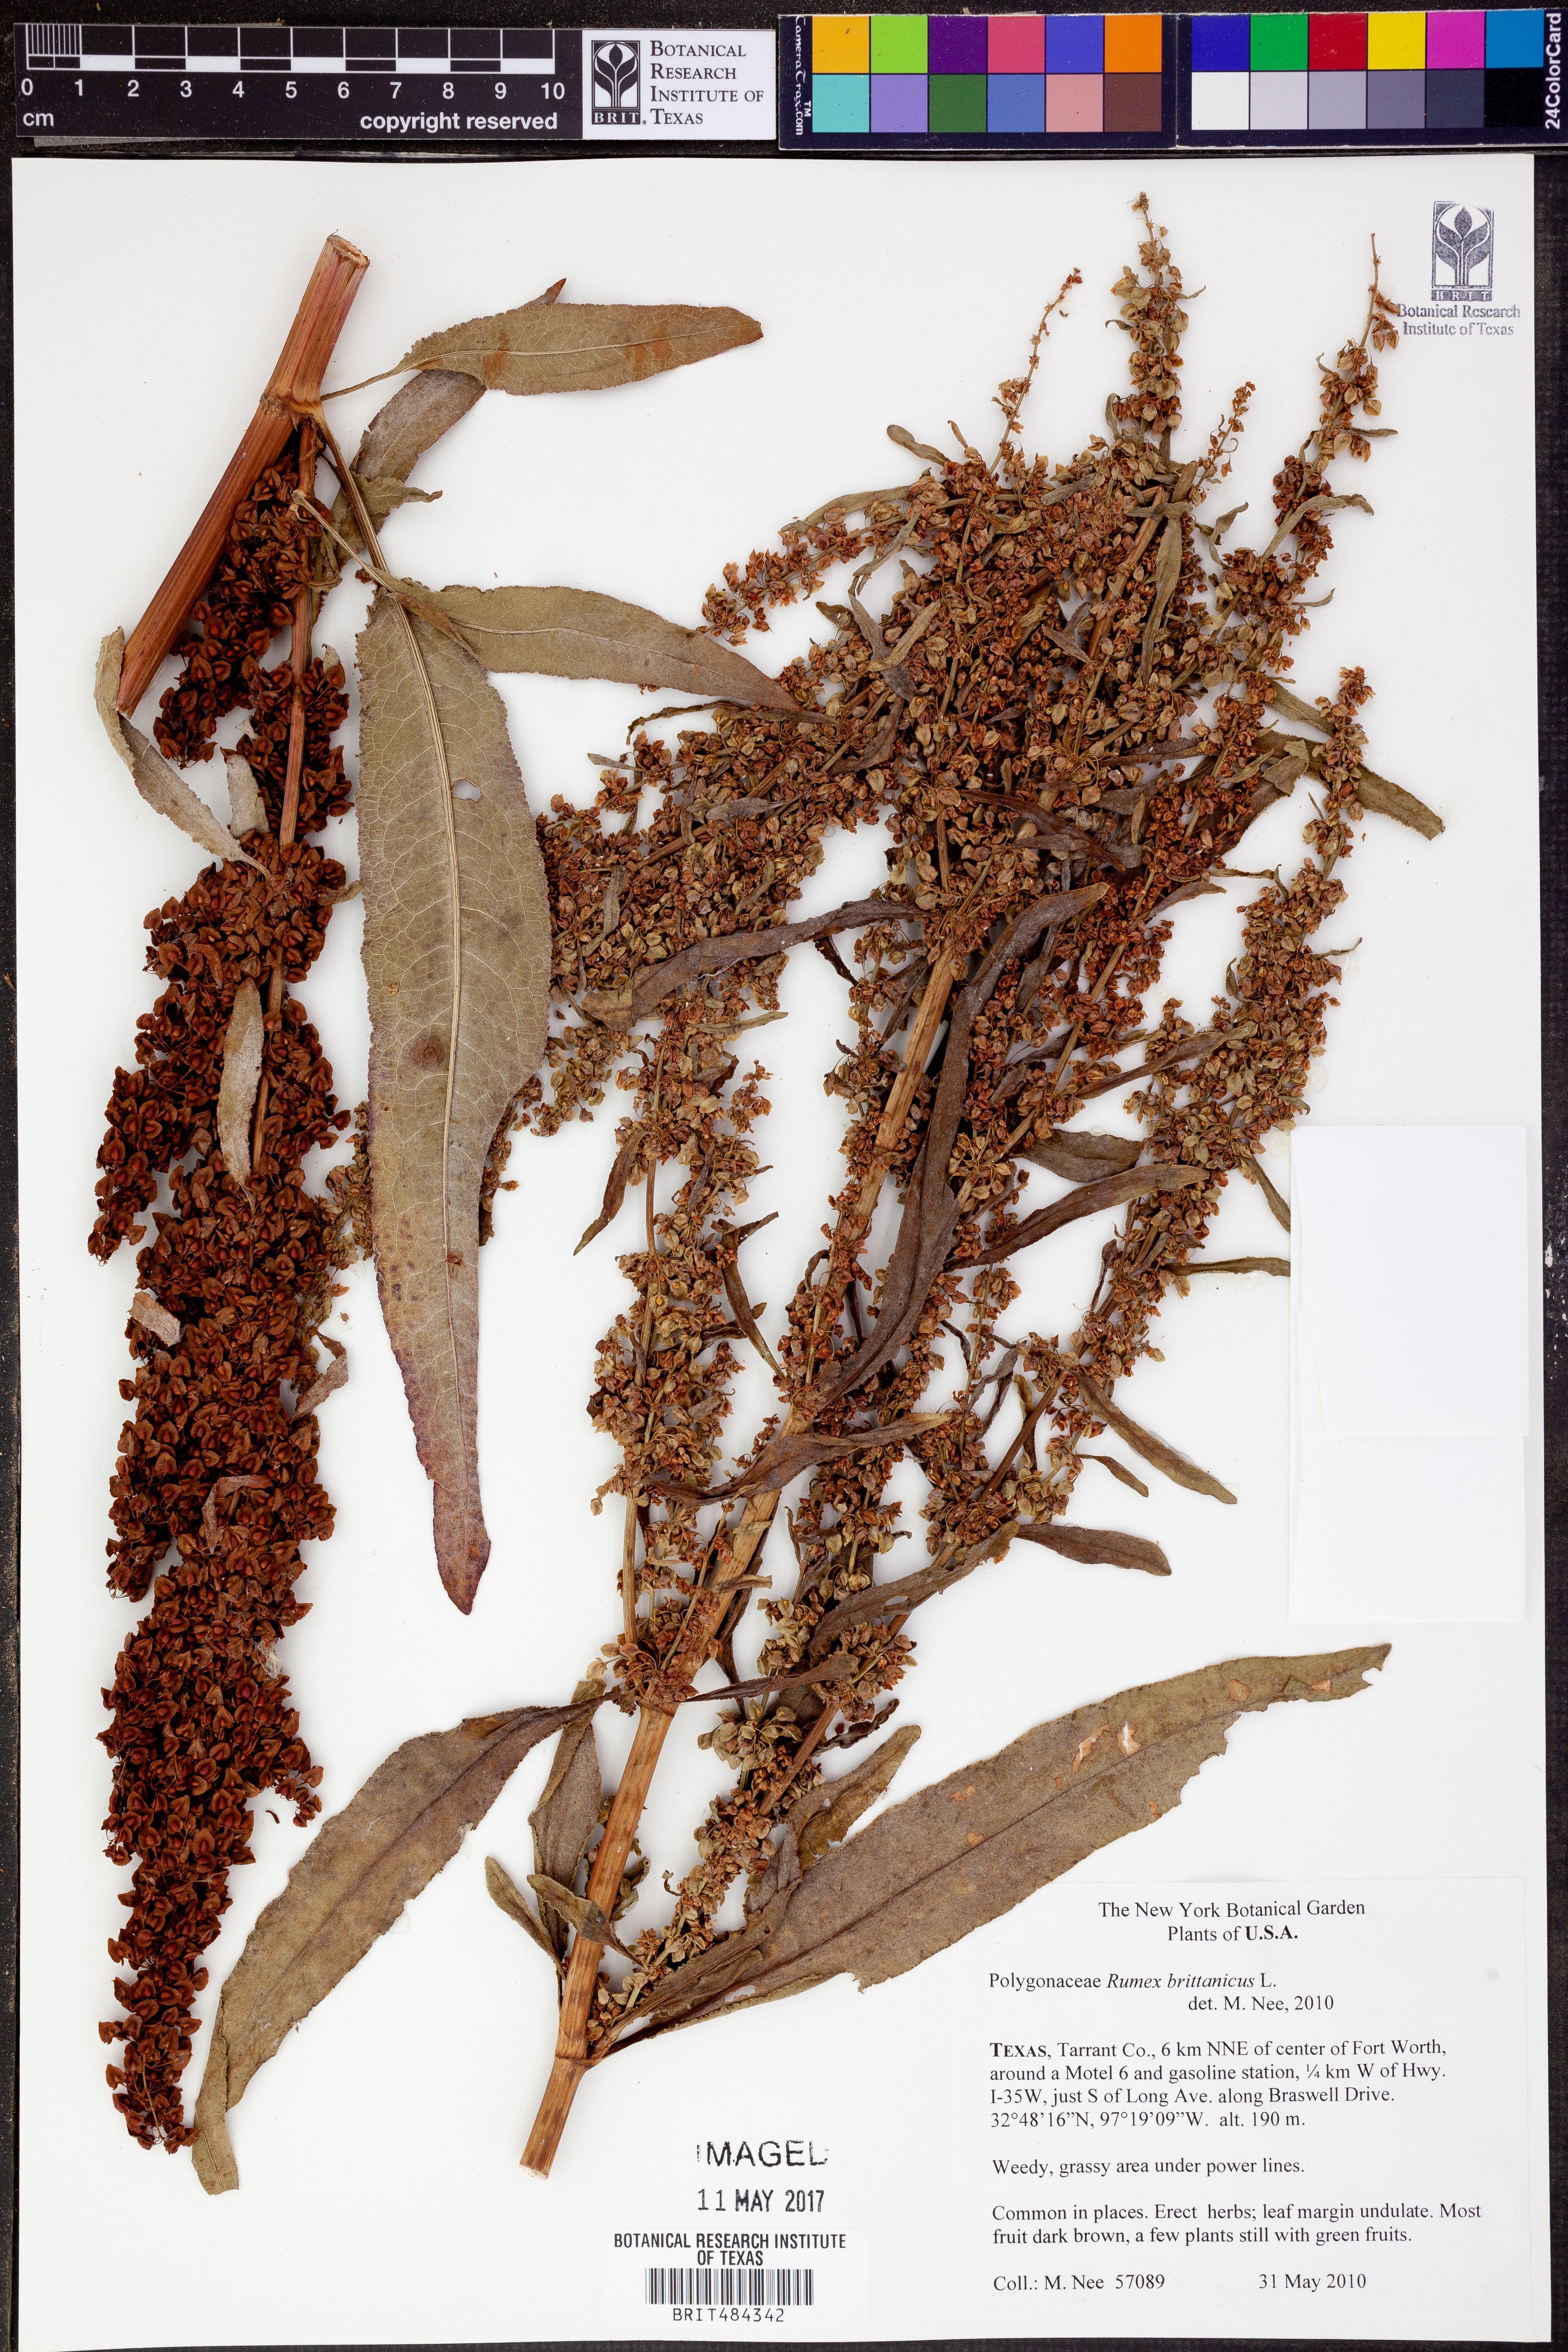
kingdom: Plantae
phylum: Tracheophyta
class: Magnoliopsida
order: Caryophyllales
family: Polygonaceae
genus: Rumex
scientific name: Rumex britannica
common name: British dock
